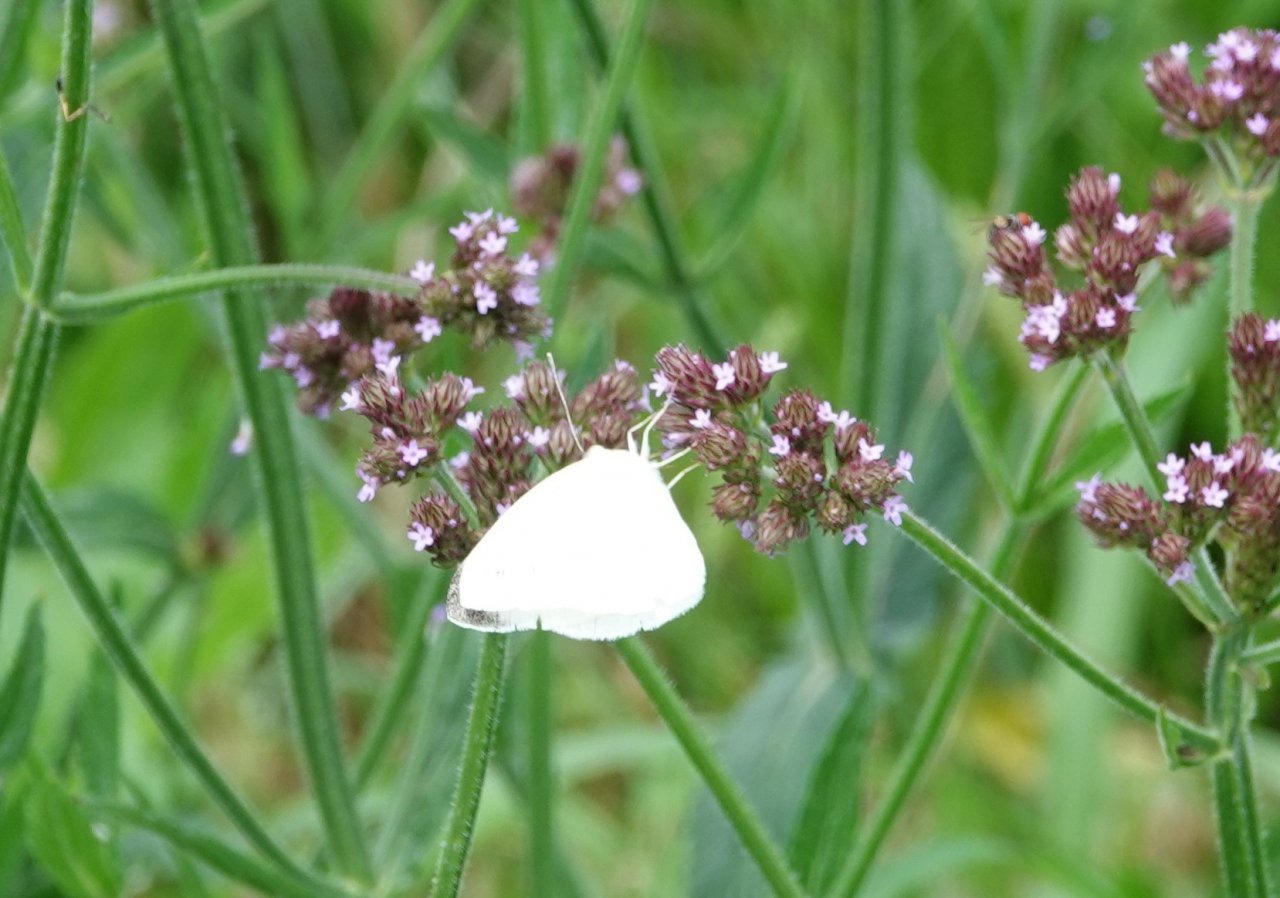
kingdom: Animalia
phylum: Arthropoda
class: Insecta
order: Lepidoptera
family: Pieridae
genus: Pieris
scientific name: Pieris rapae
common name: Cabbage White
